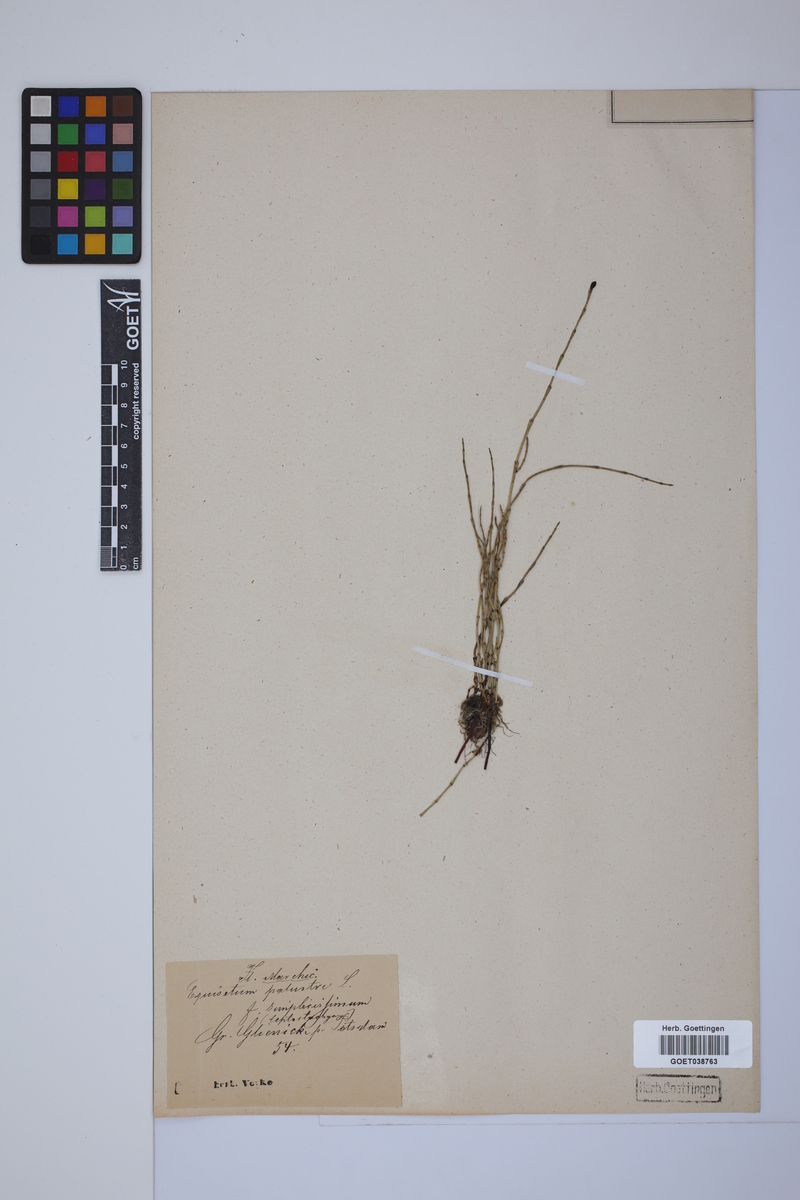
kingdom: Plantae
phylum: Tracheophyta
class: Polypodiopsida
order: Equisetales
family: Equisetaceae
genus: Equisetum
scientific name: Equisetum palustre
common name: Marsh horsetail
